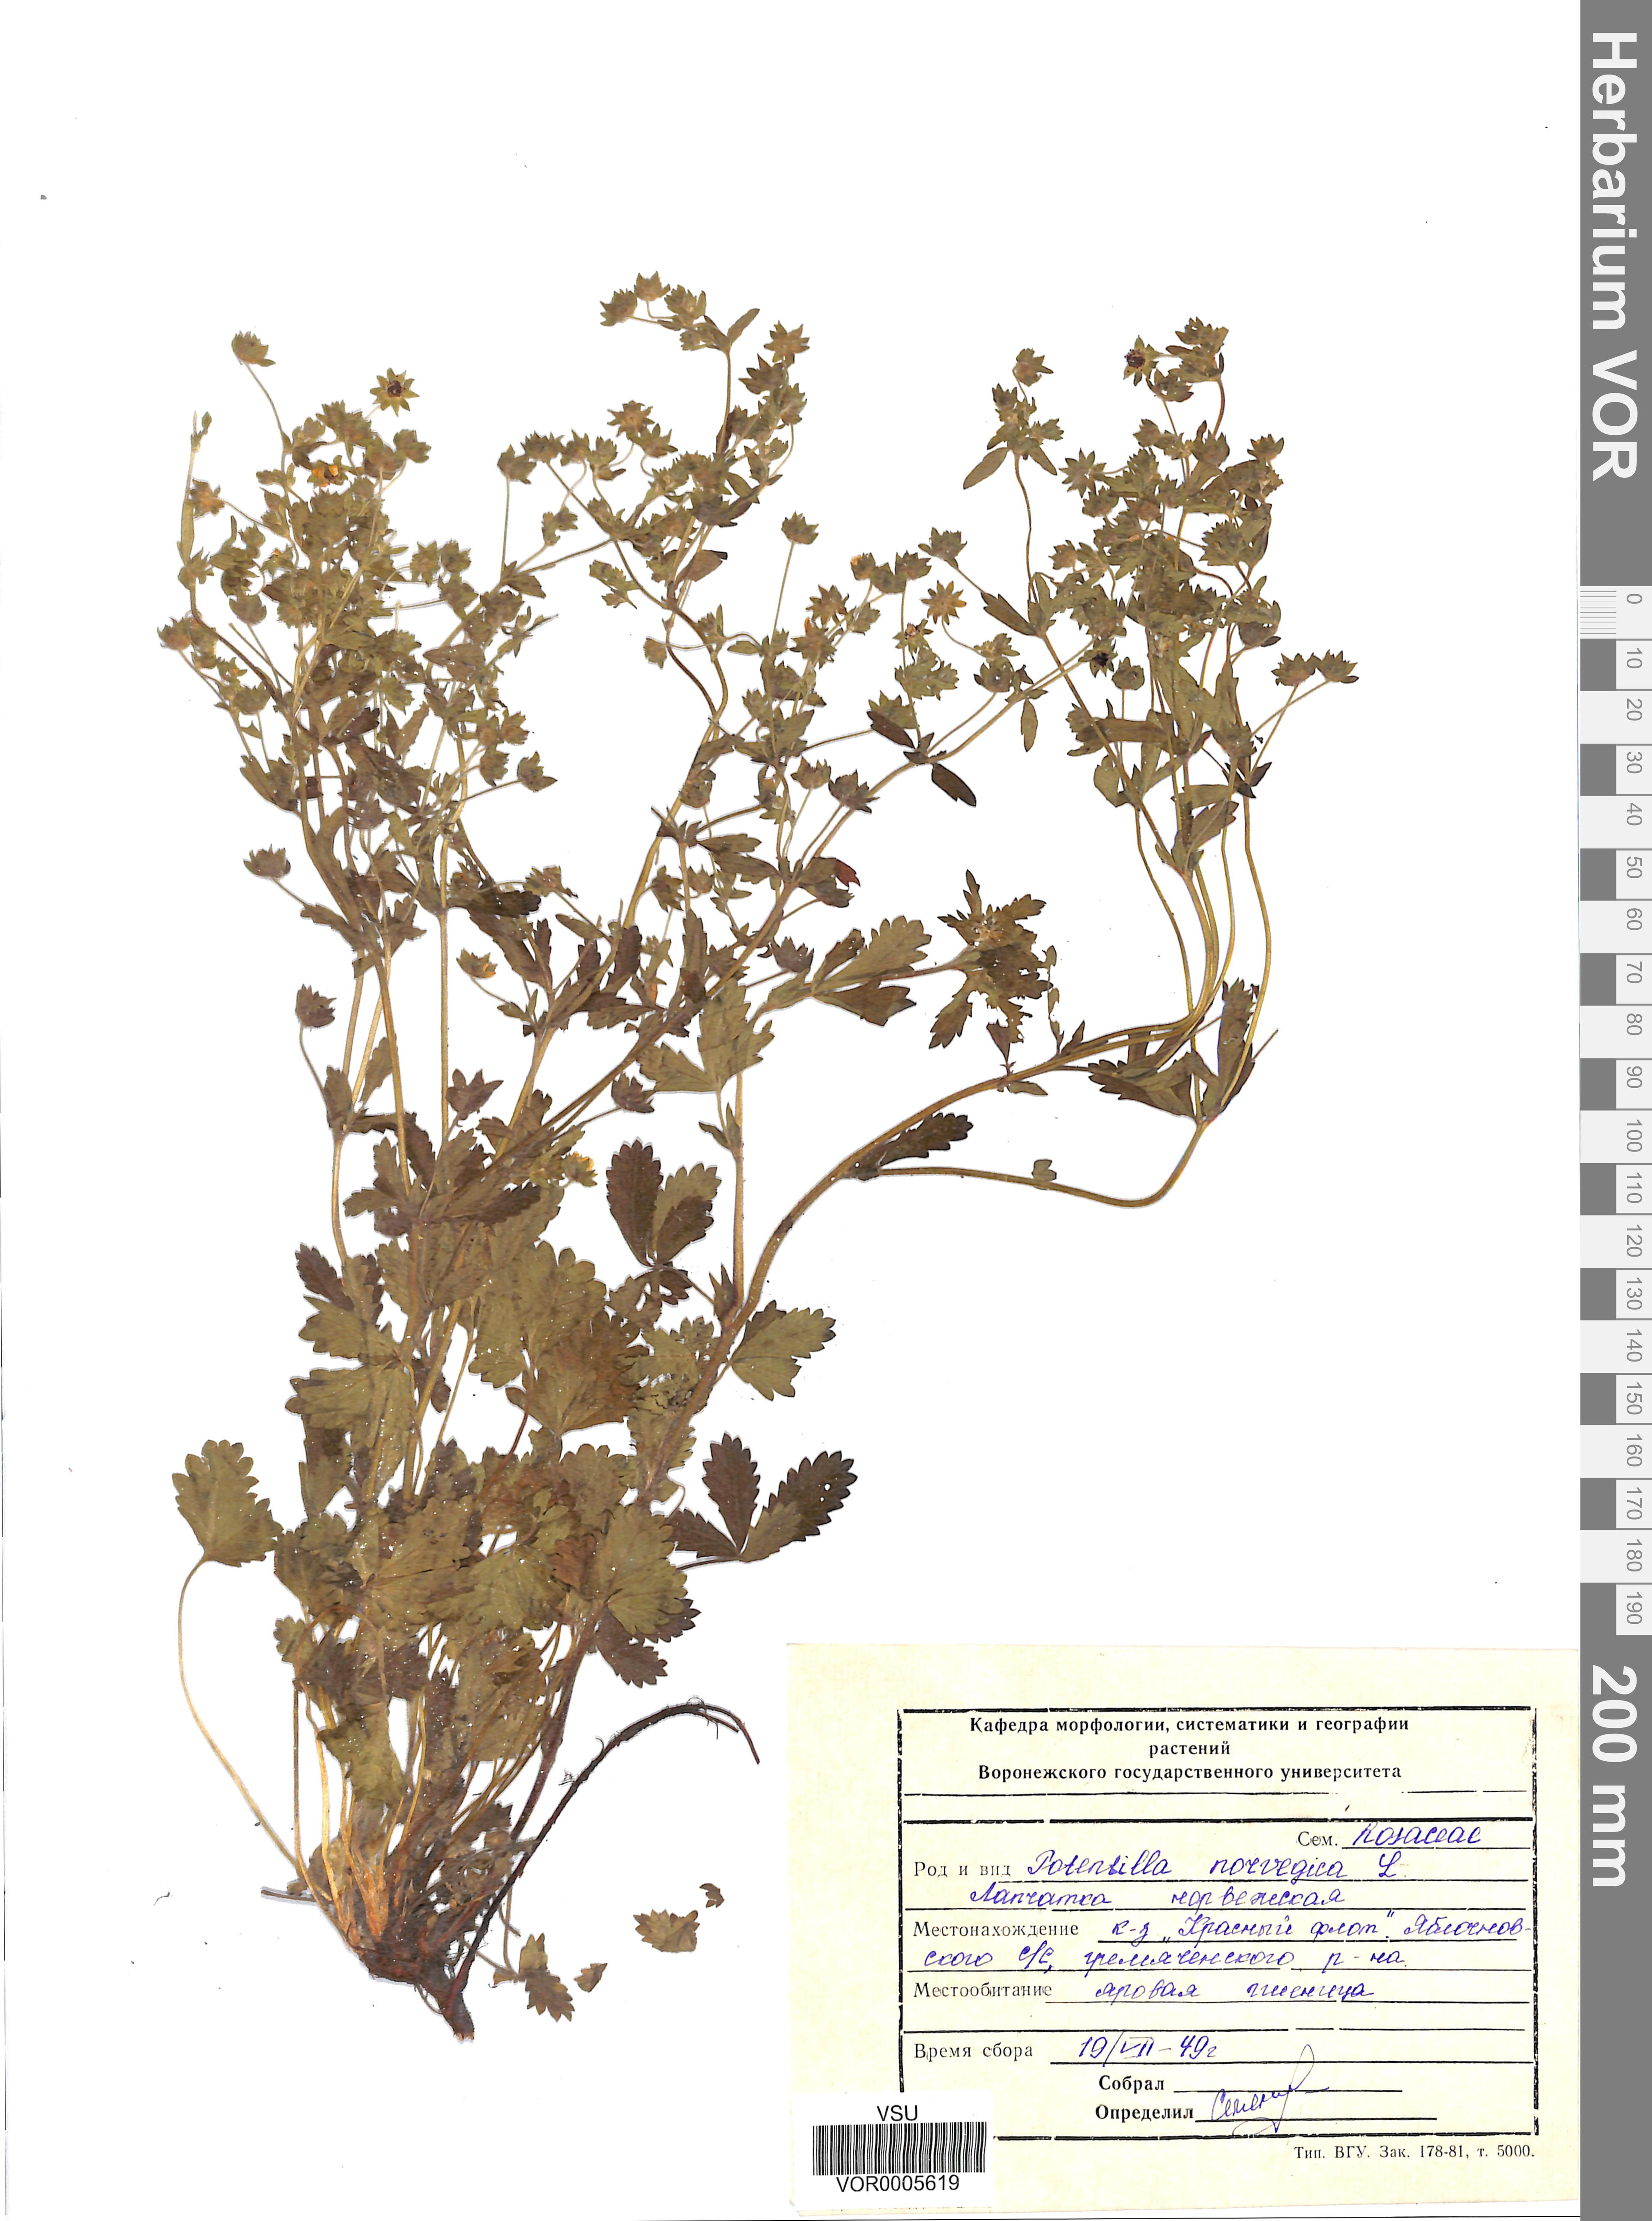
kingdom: Plantae
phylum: Tracheophyta
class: Magnoliopsida
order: Rosales
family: Rosaceae
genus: Potentilla
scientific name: Potentilla norvegica
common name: Ternate-leaved cinquefoil
